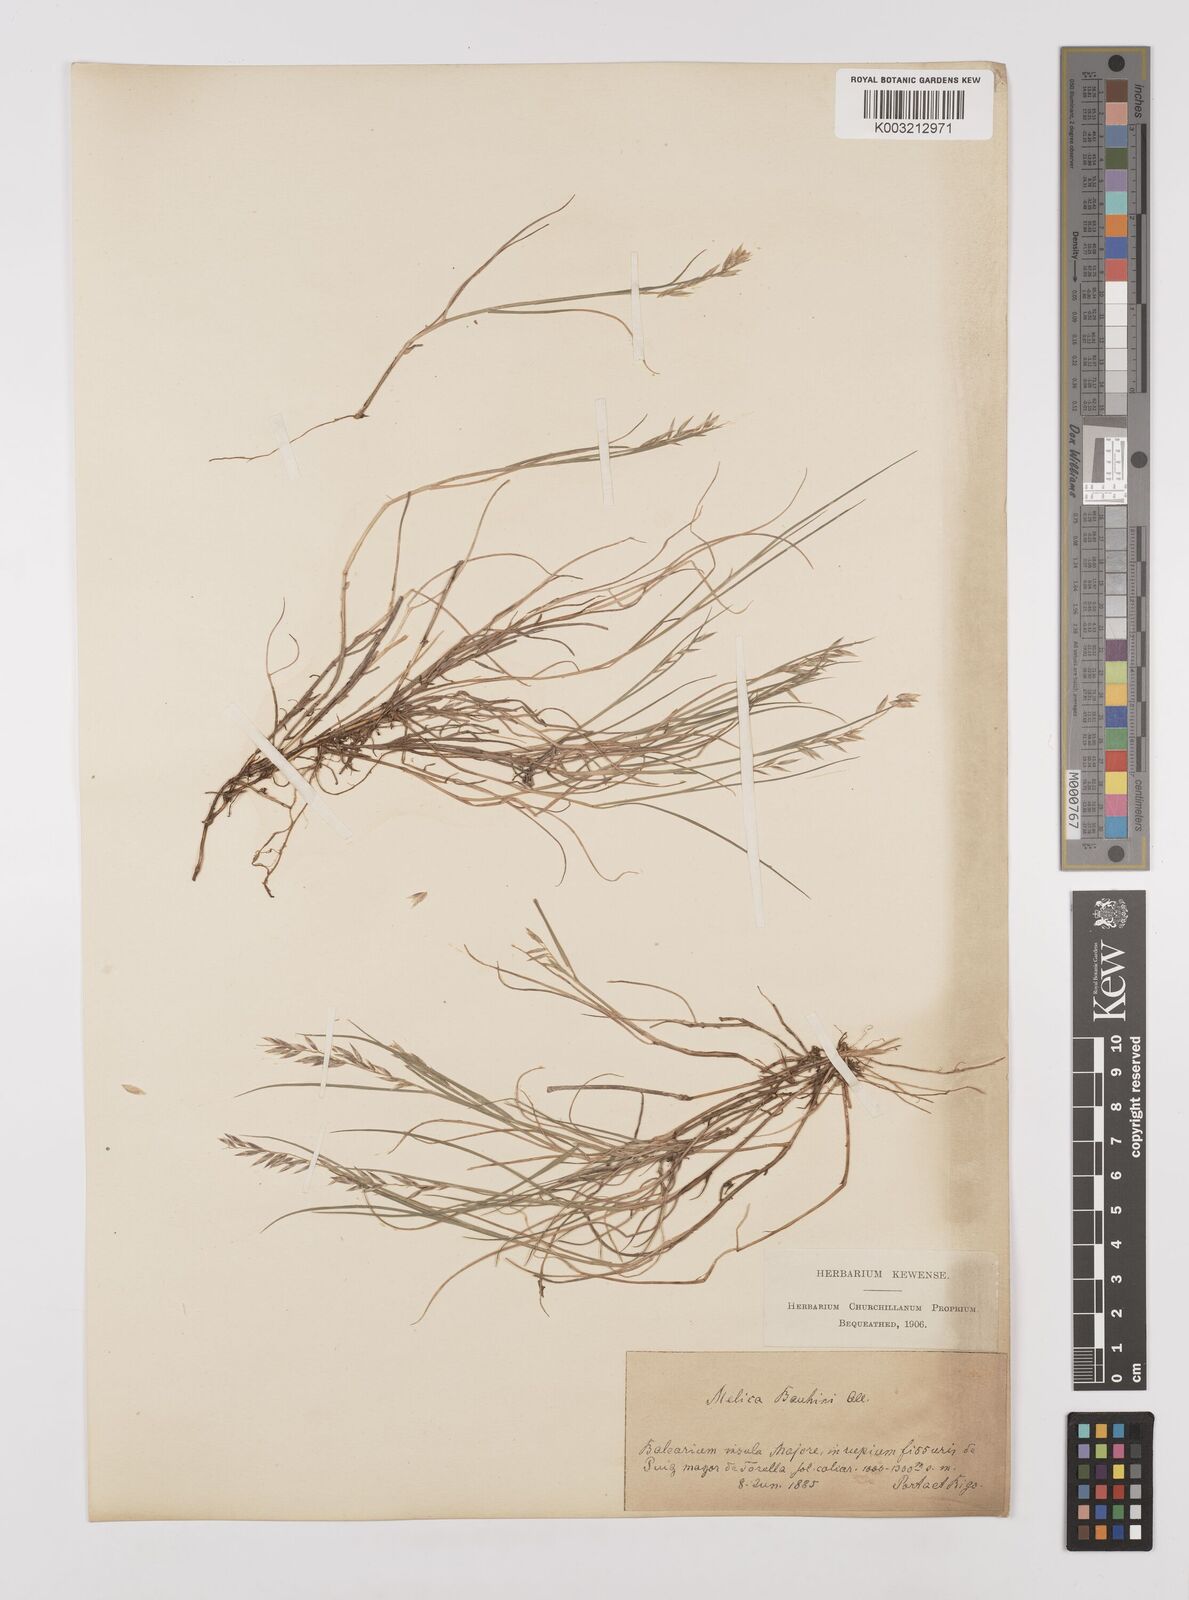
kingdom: Plantae
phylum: Tracheophyta
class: Liliopsida
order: Poales
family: Poaceae
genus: Melica
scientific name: Melica amethystina
